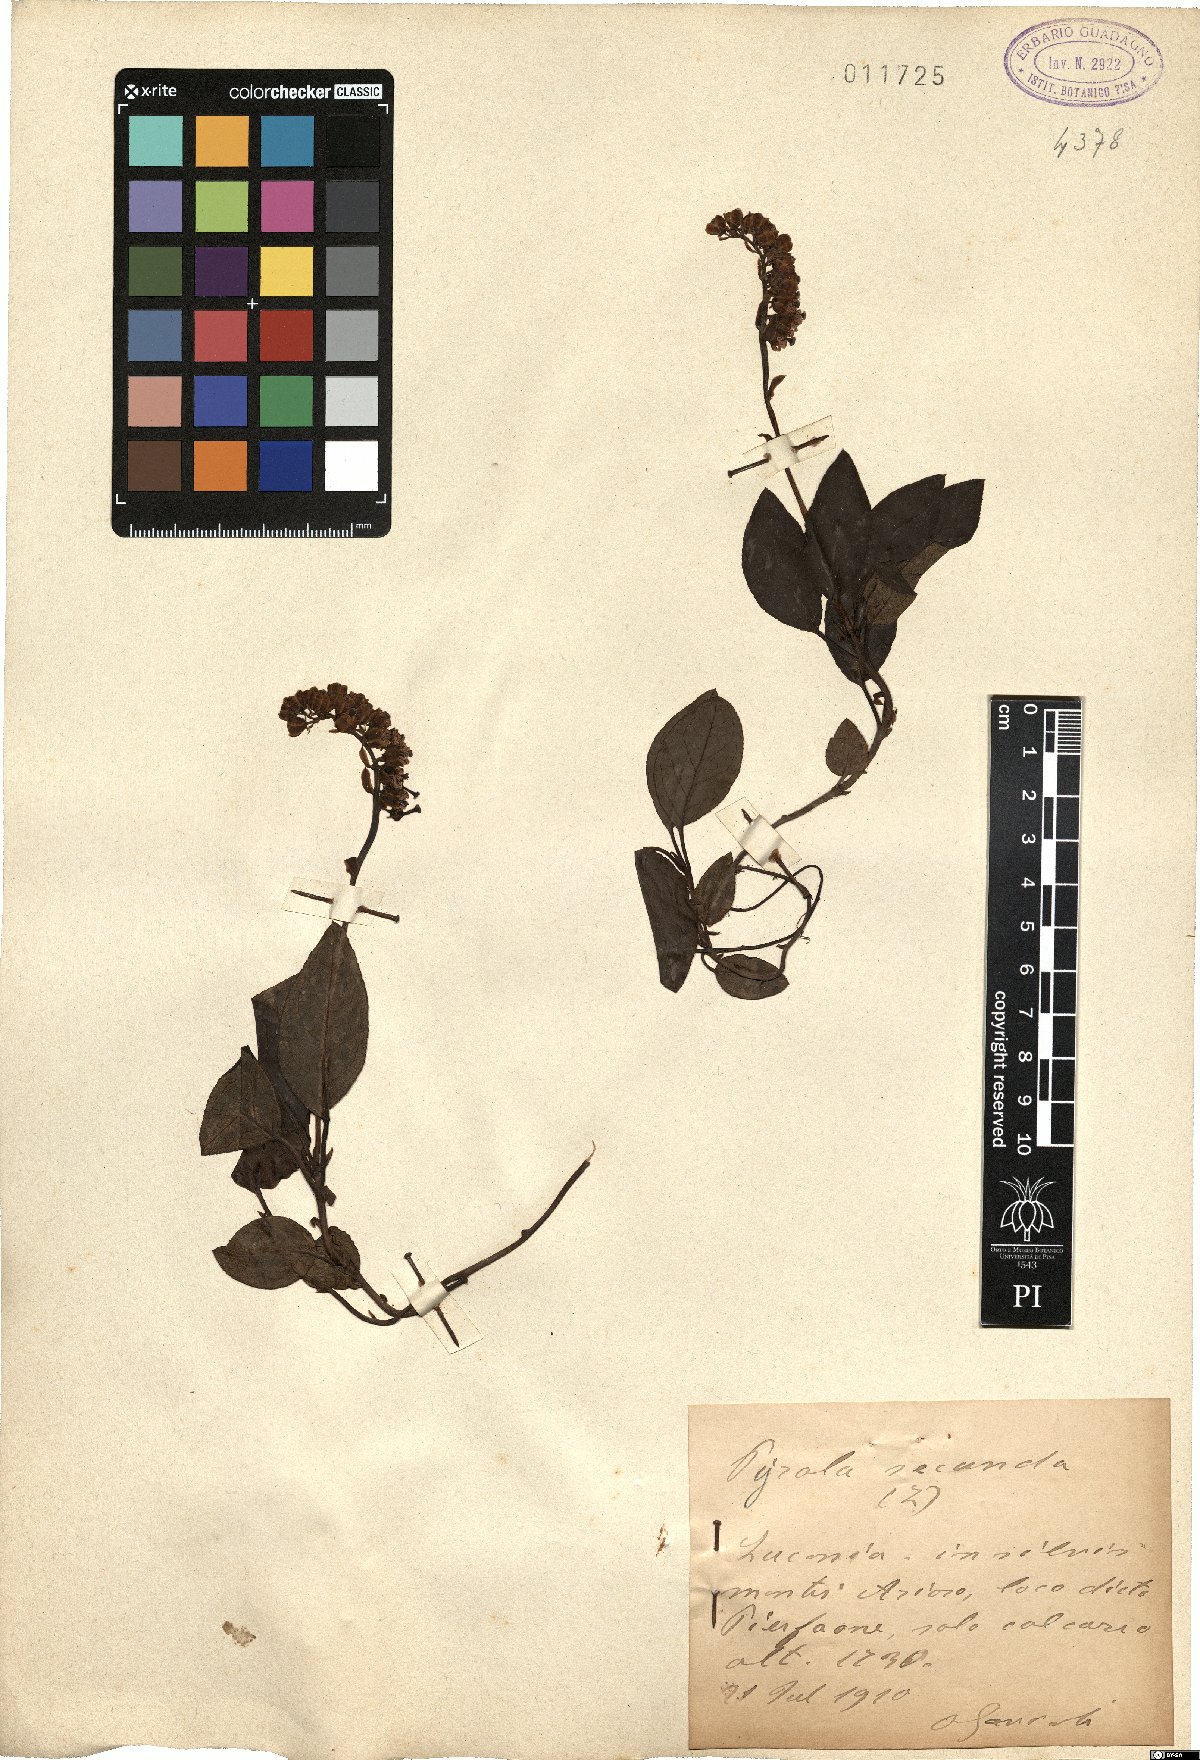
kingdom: Plantae
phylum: Tracheophyta
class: Magnoliopsida
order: Ericales
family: Ericaceae
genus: Orthilia
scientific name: Orthilia secunda
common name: One-sided orthilia
